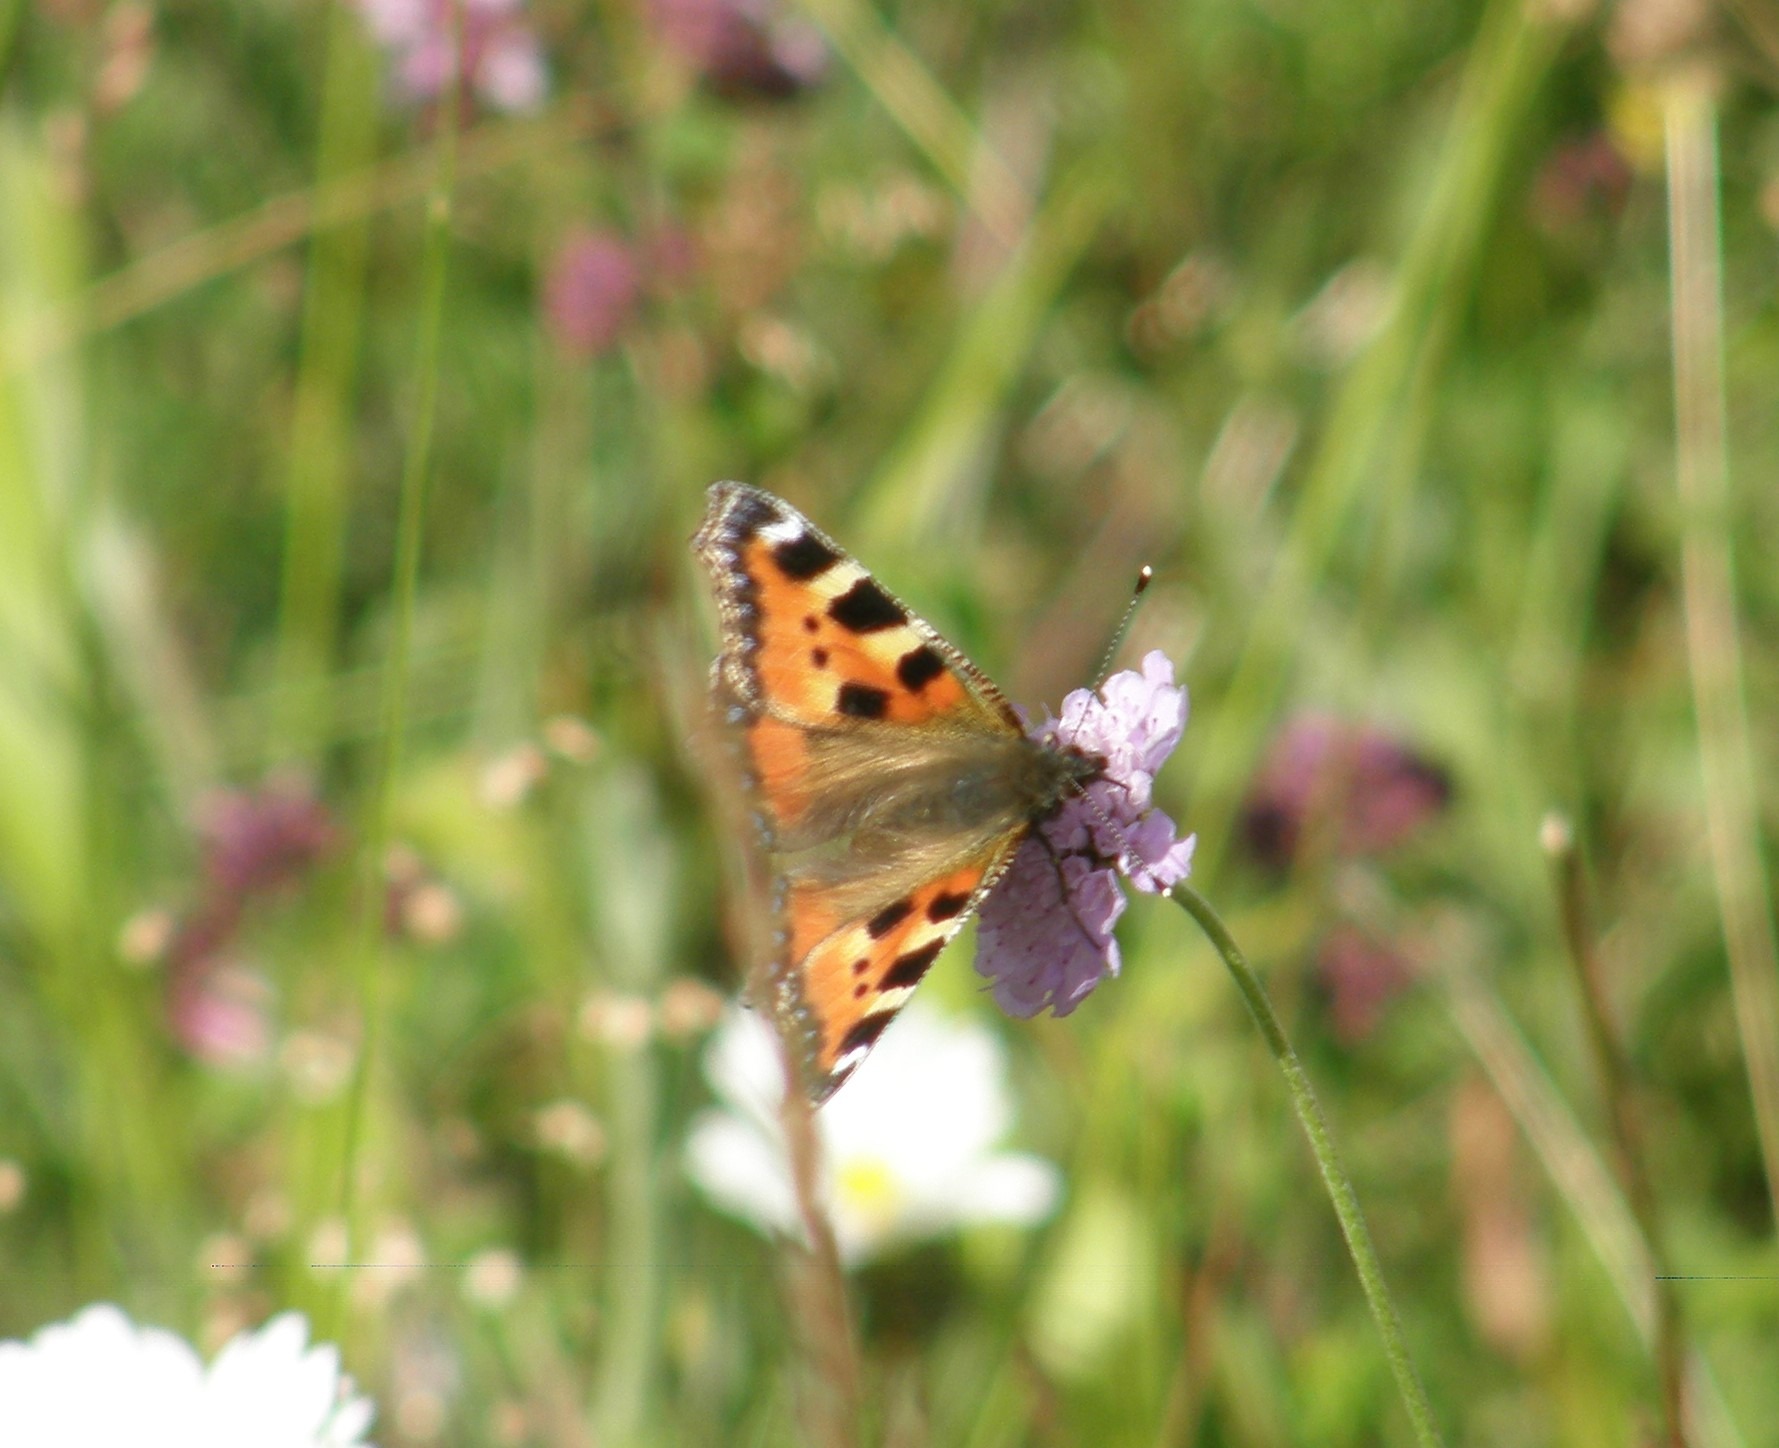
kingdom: Animalia
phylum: Arthropoda
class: Insecta
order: Lepidoptera
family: Nymphalidae
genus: Aglais
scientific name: Aglais urticae
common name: Nældens takvinge
